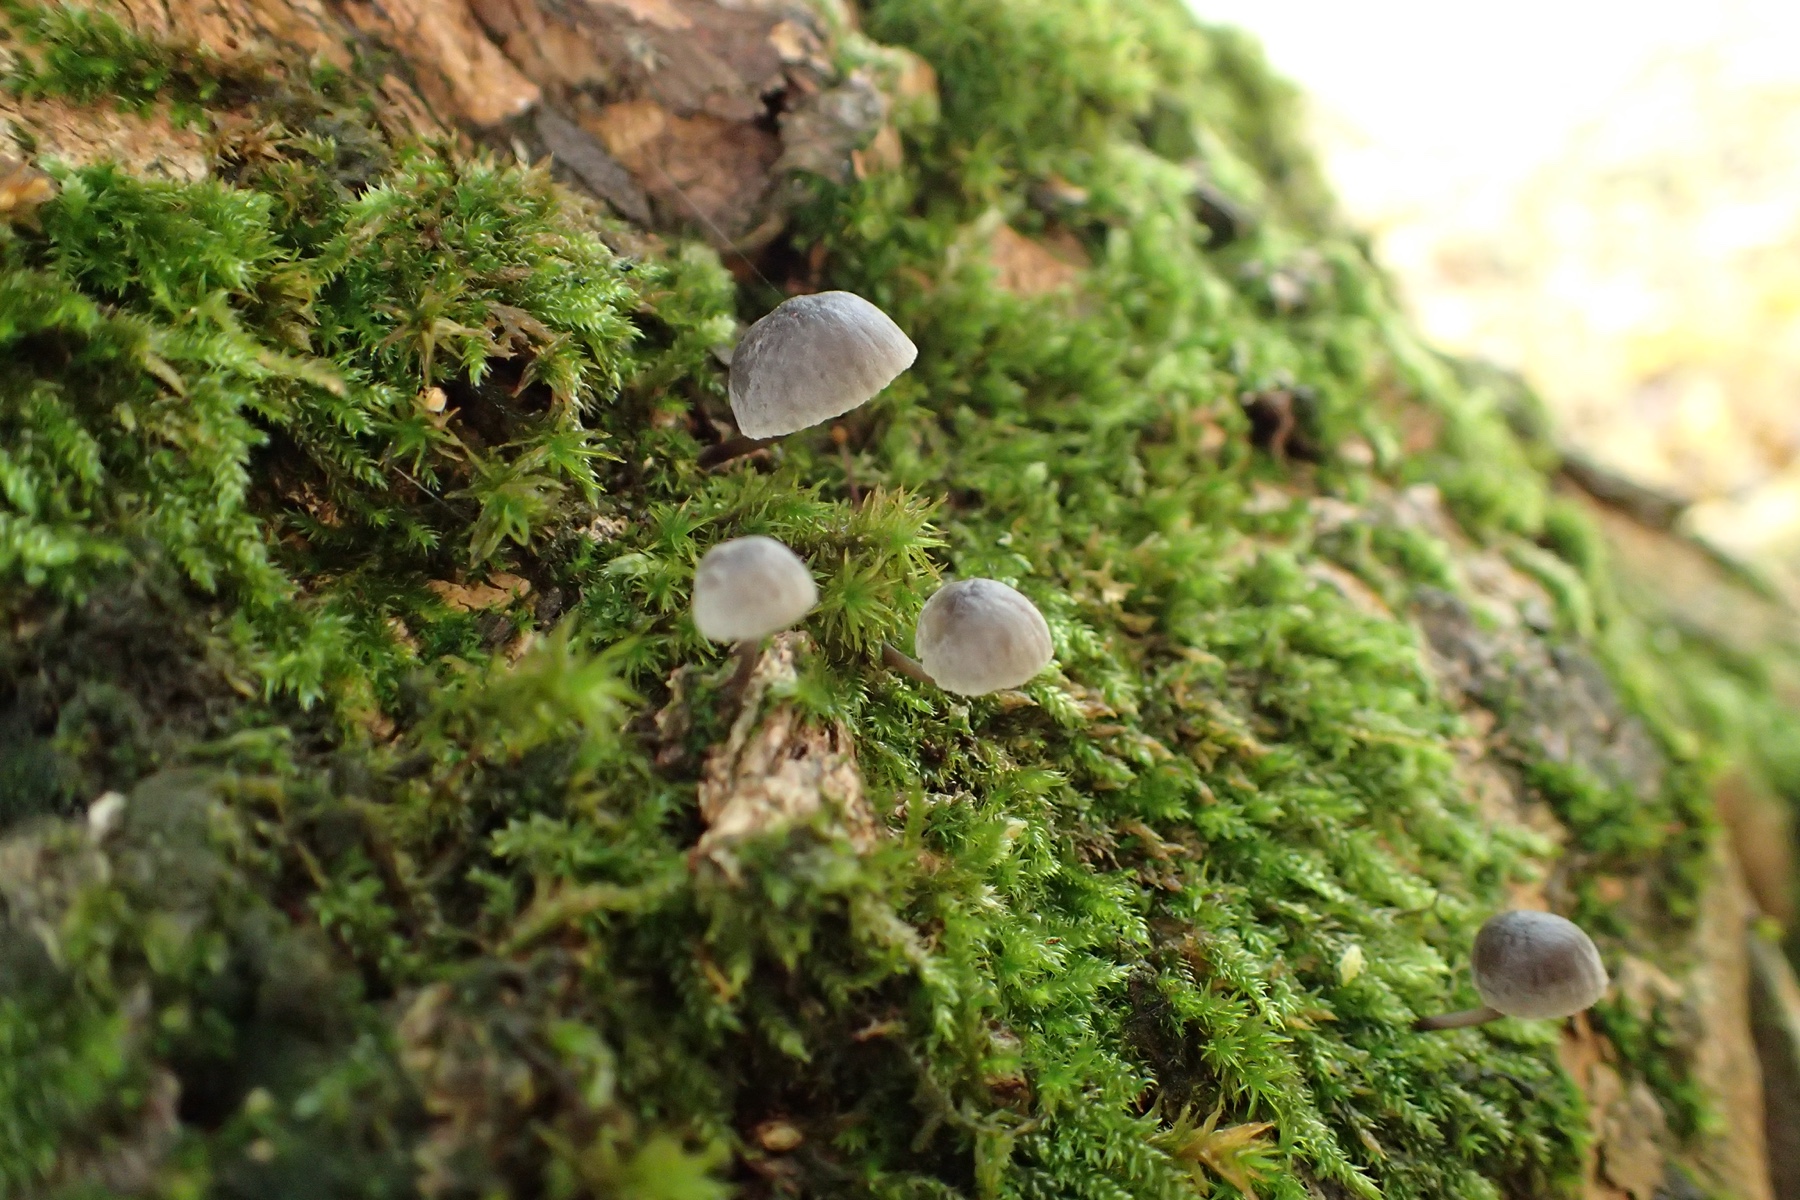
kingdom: Fungi
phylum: Basidiomycota
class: Agaricomycetes
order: Agaricales
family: Mycenaceae
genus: Mycena
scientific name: Mycena pseudocorticola
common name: gråblå bark-huesvamp
